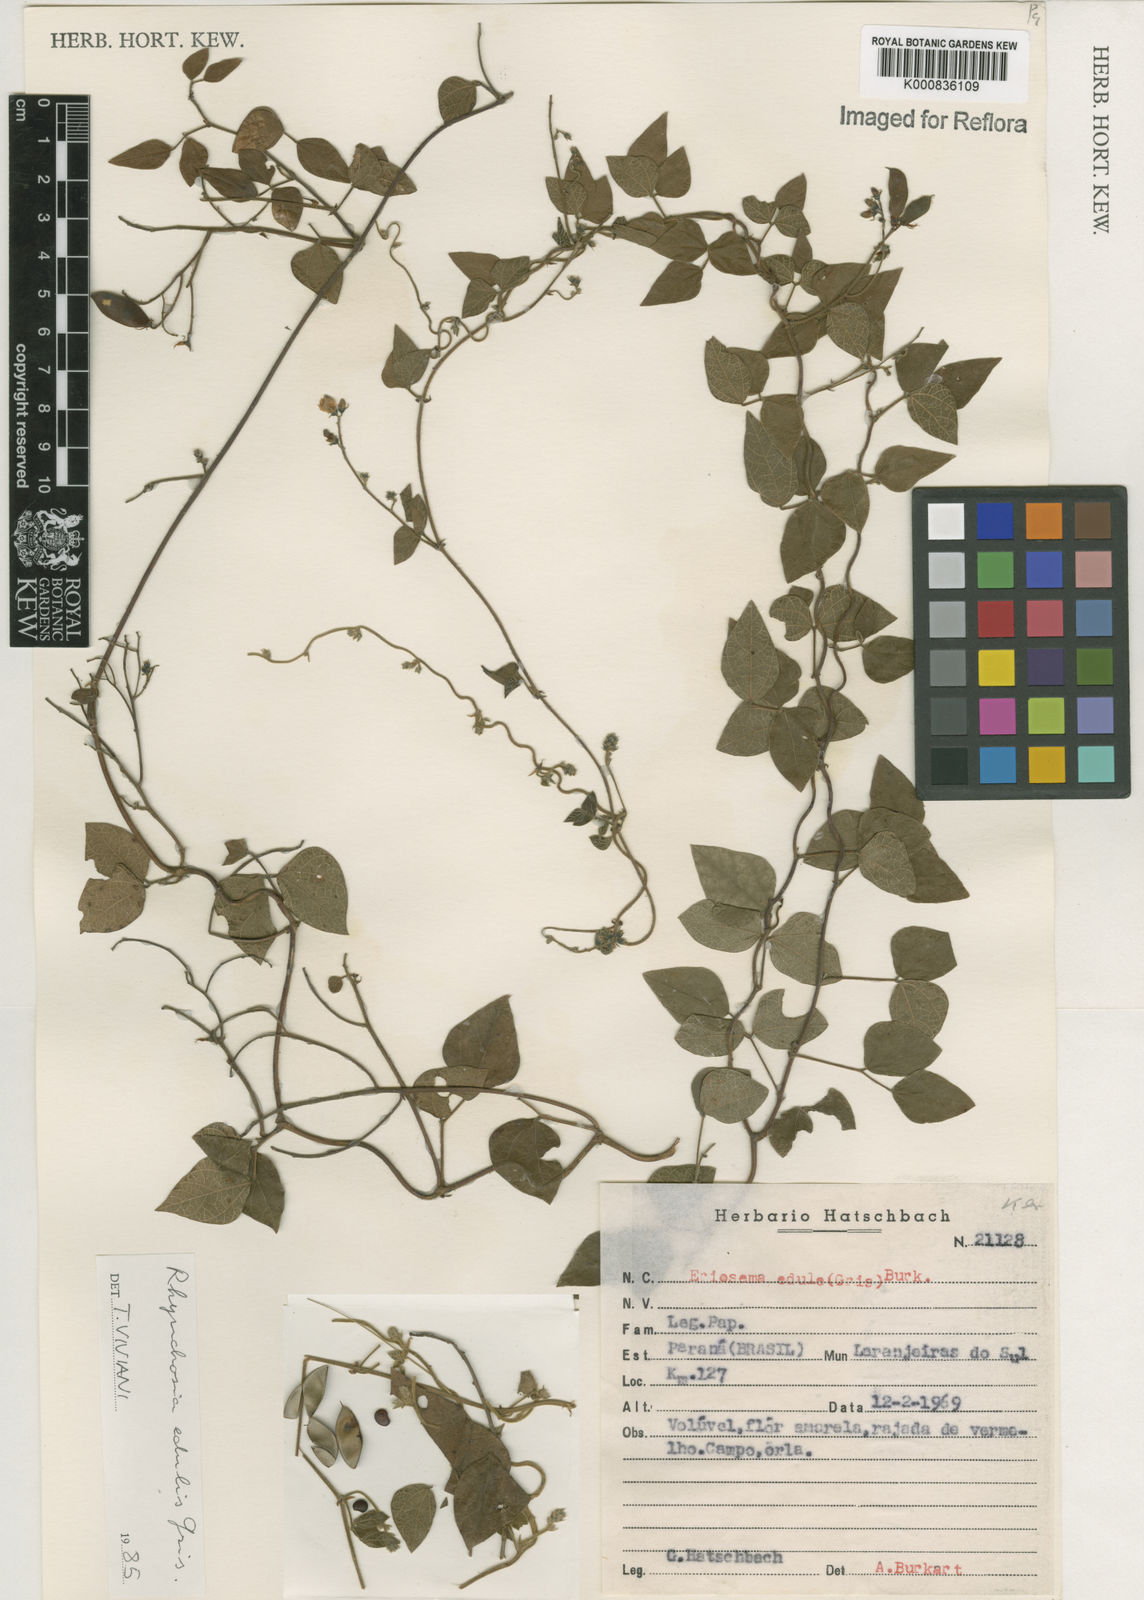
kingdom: Plantae
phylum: Tracheophyta
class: Magnoliopsida
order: Fabales
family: Fabaceae
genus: Rhynchosia
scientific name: Rhynchosia edulis
